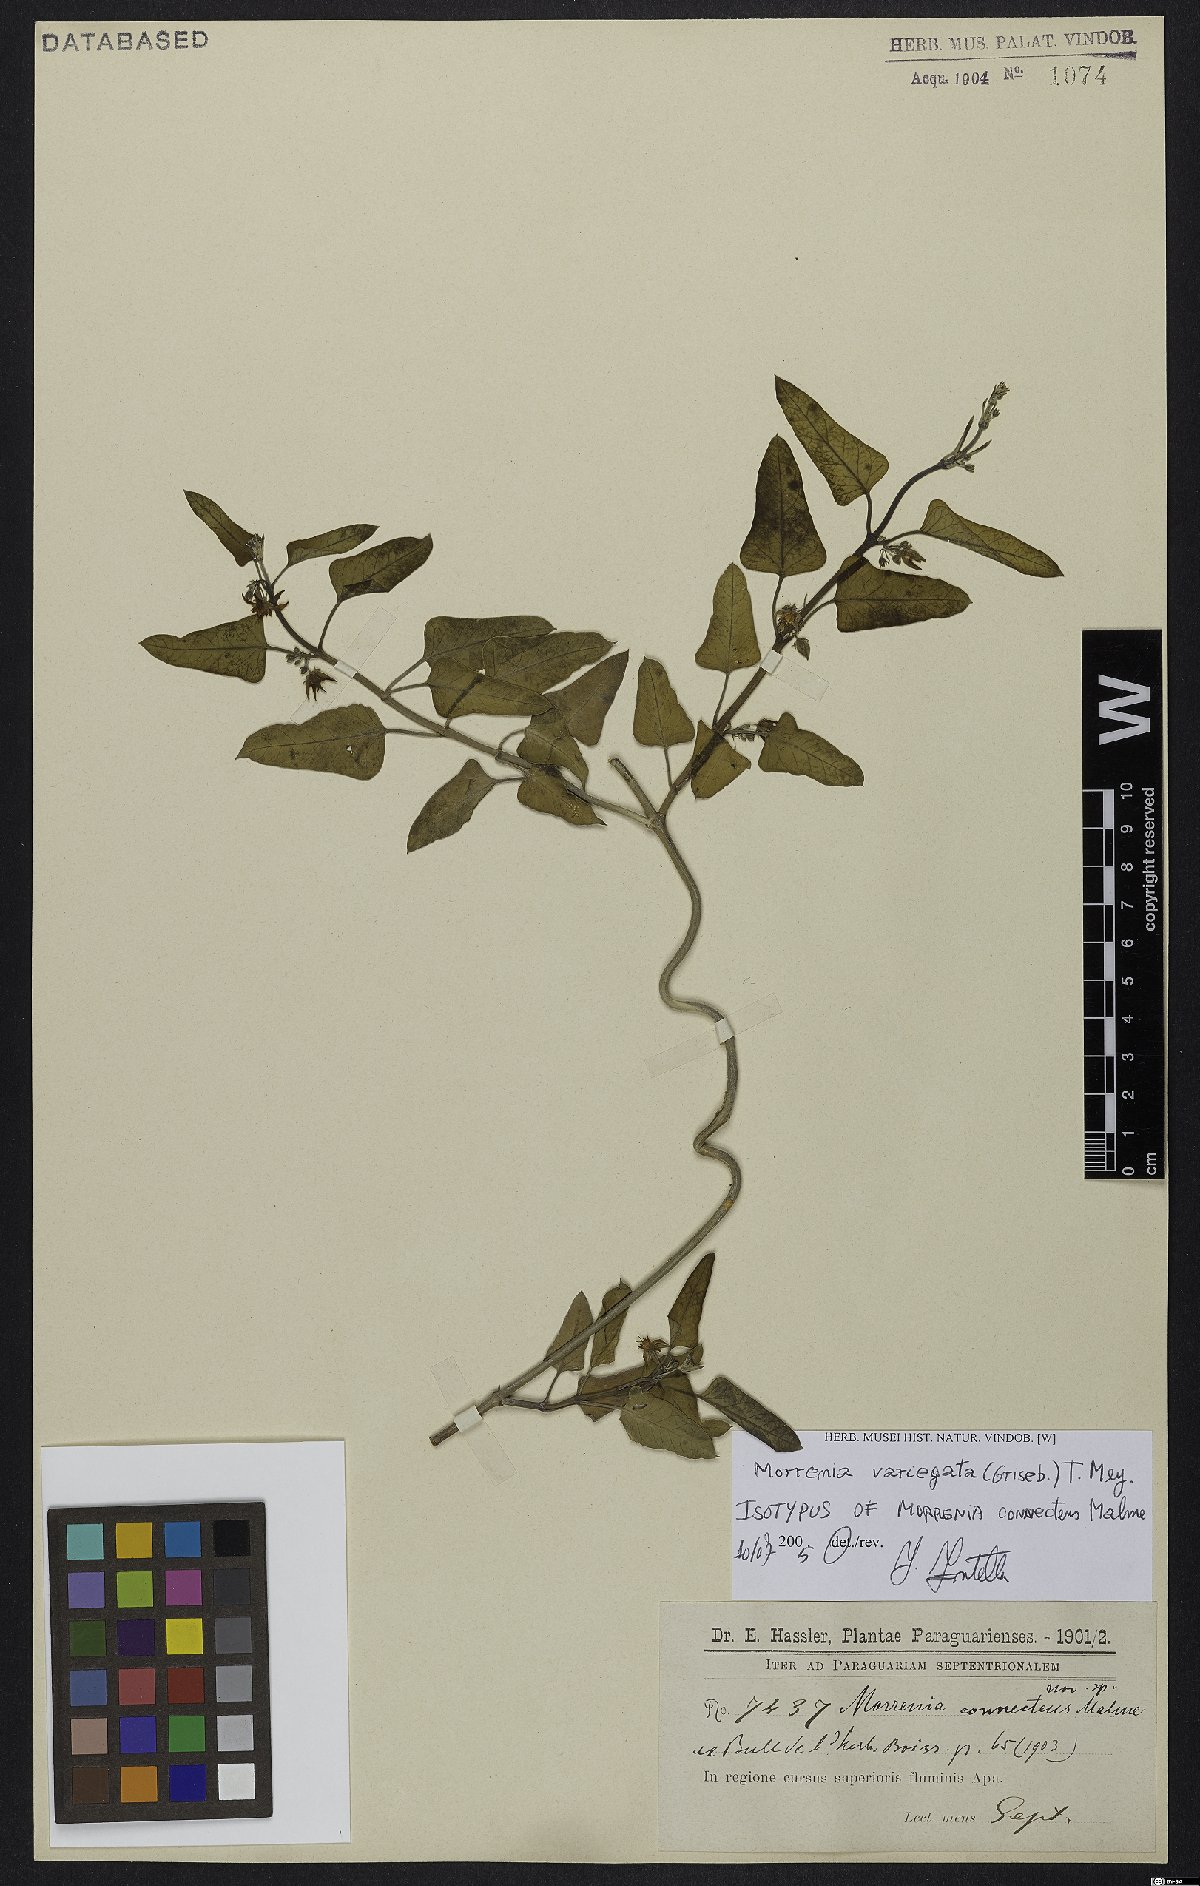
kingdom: Plantae
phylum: Tracheophyta
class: Magnoliopsida
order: Gentianales
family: Apocynaceae
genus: Araujia
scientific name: Araujia variegata
